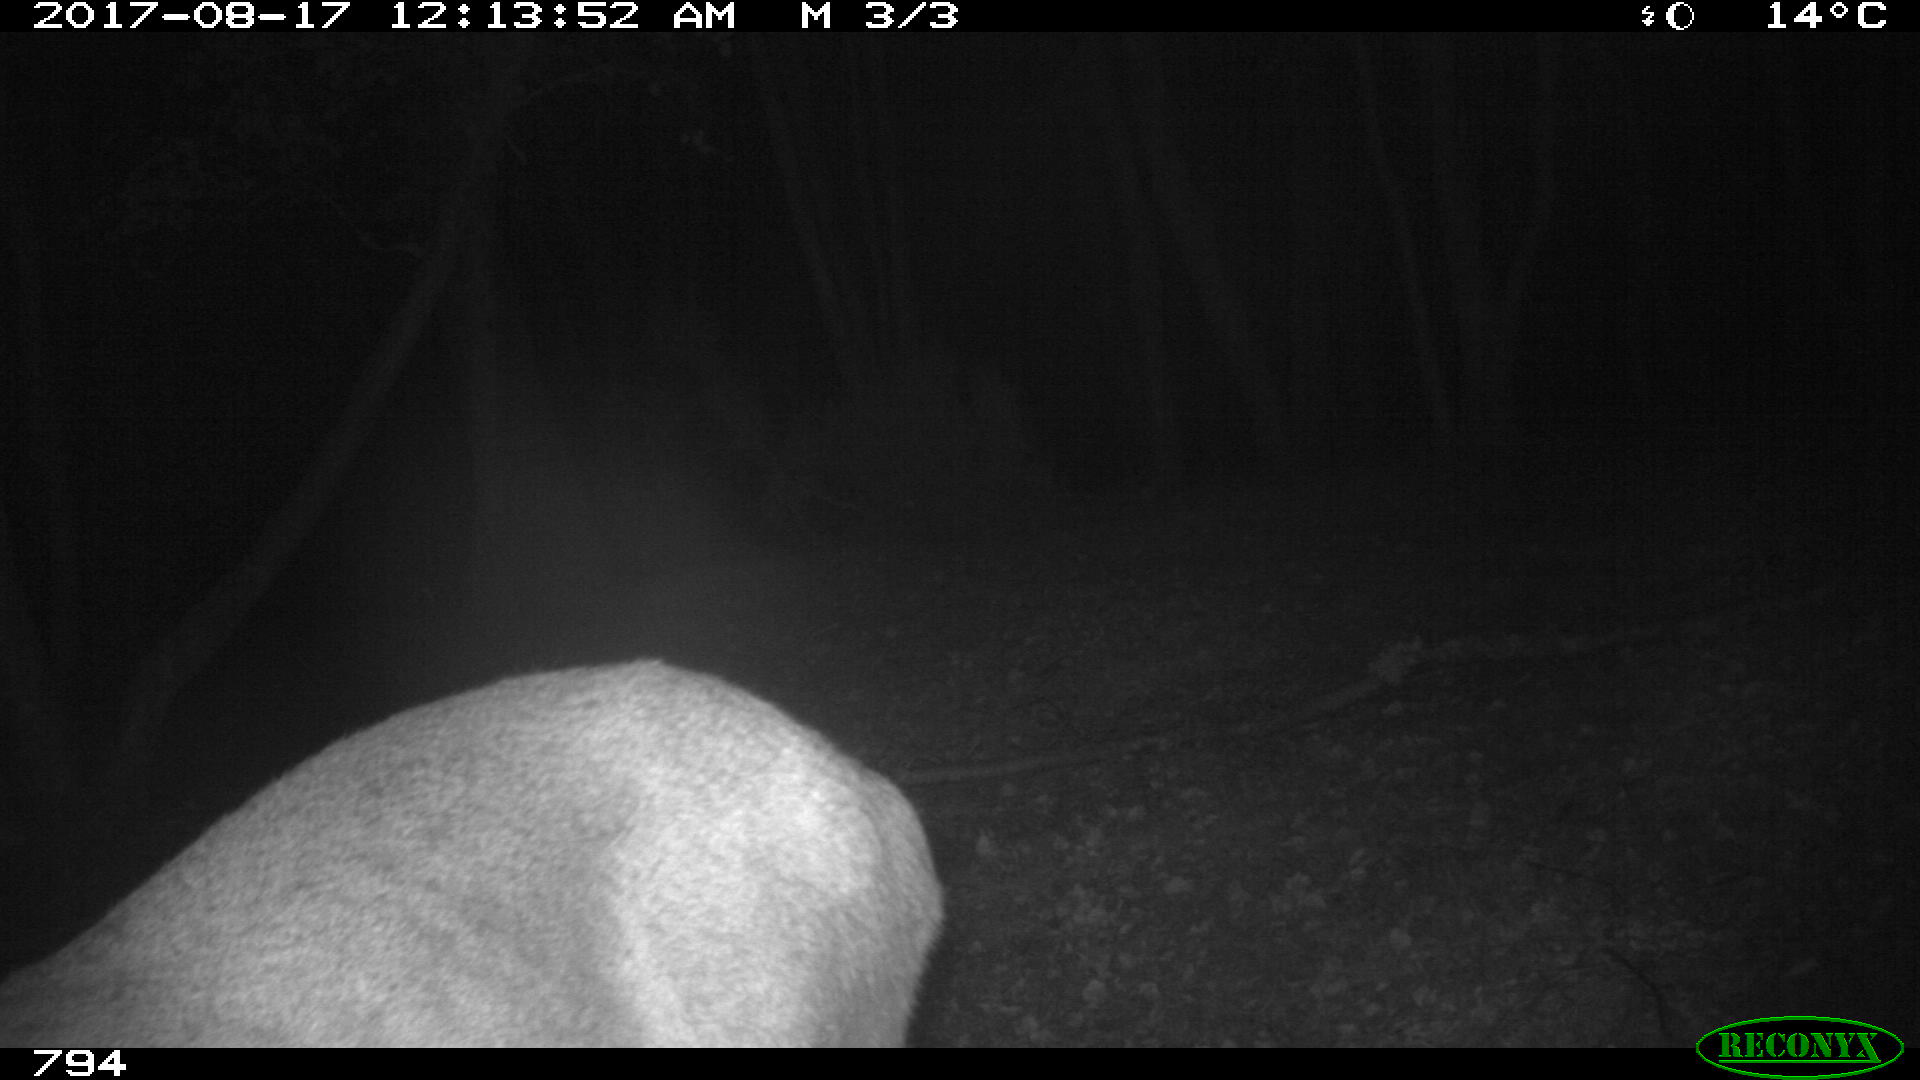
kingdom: Animalia
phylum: Chordata
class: Mammalia
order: Artiodactyla
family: Cervidae
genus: Capreolus
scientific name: Capreolus capreolus
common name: Western roe deer
